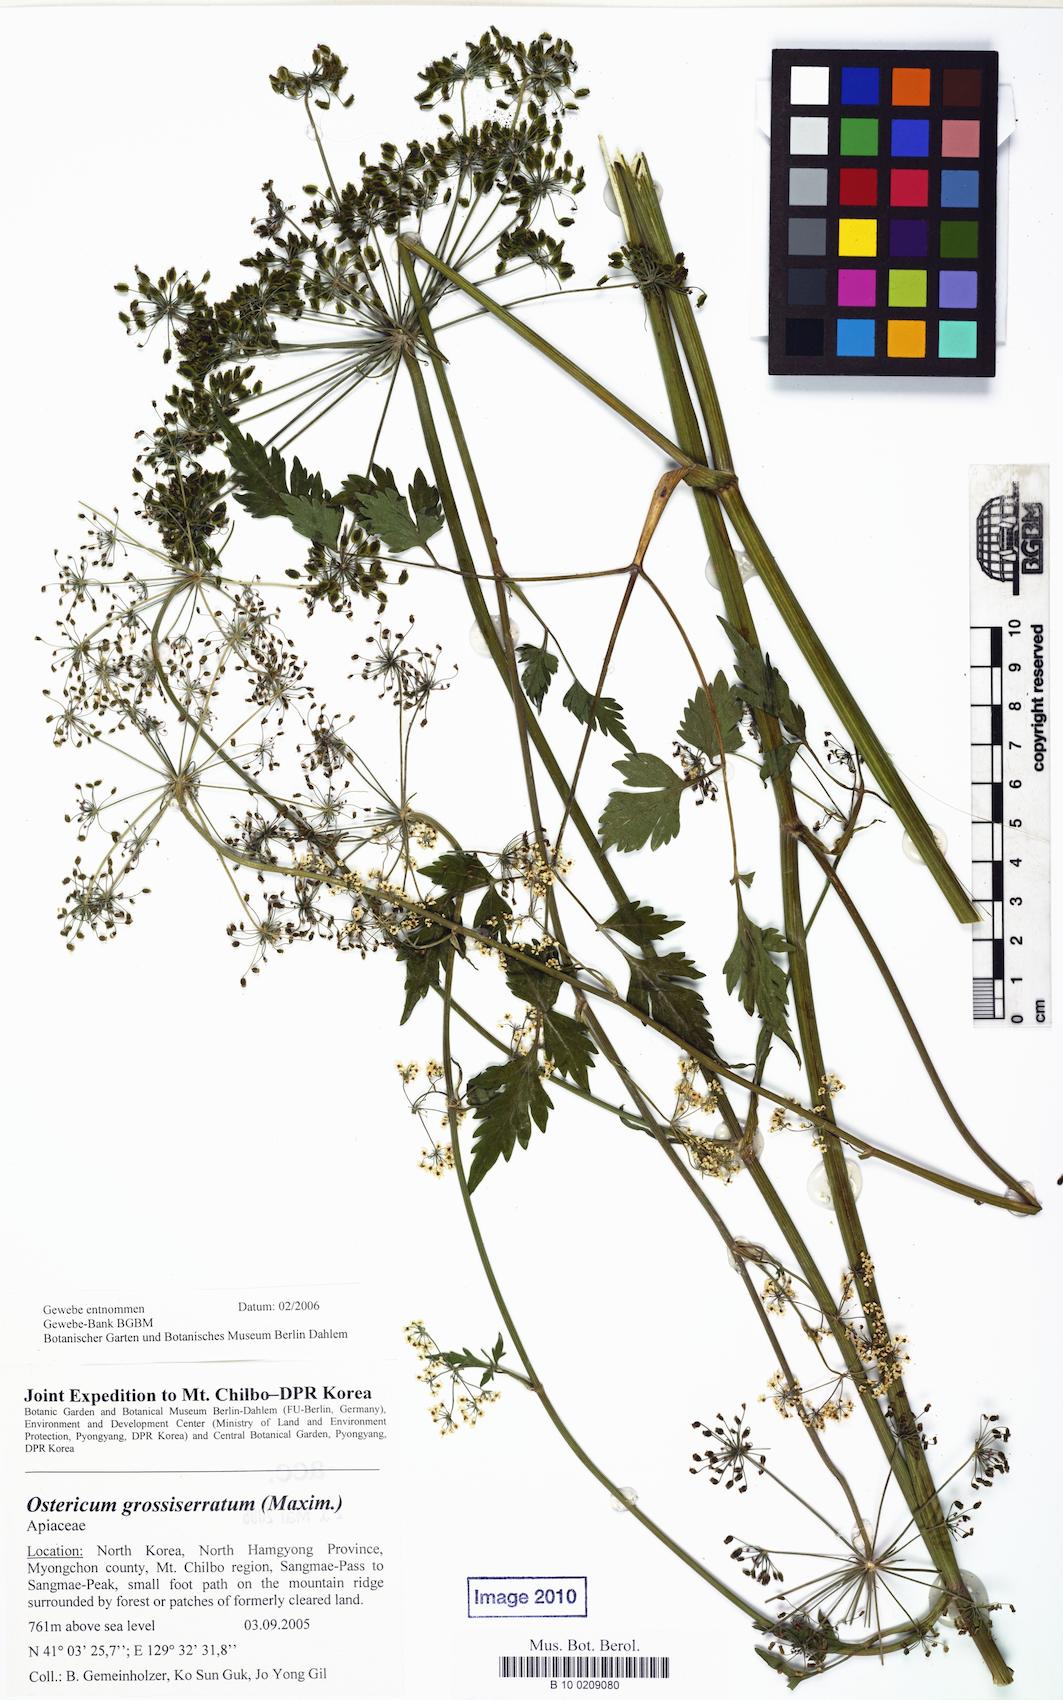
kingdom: Plantae
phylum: Tracheophyta
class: Magnoliopsida
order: Apiales
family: Apiaceae
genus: Ostericum
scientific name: Ostericum grossiserratum
